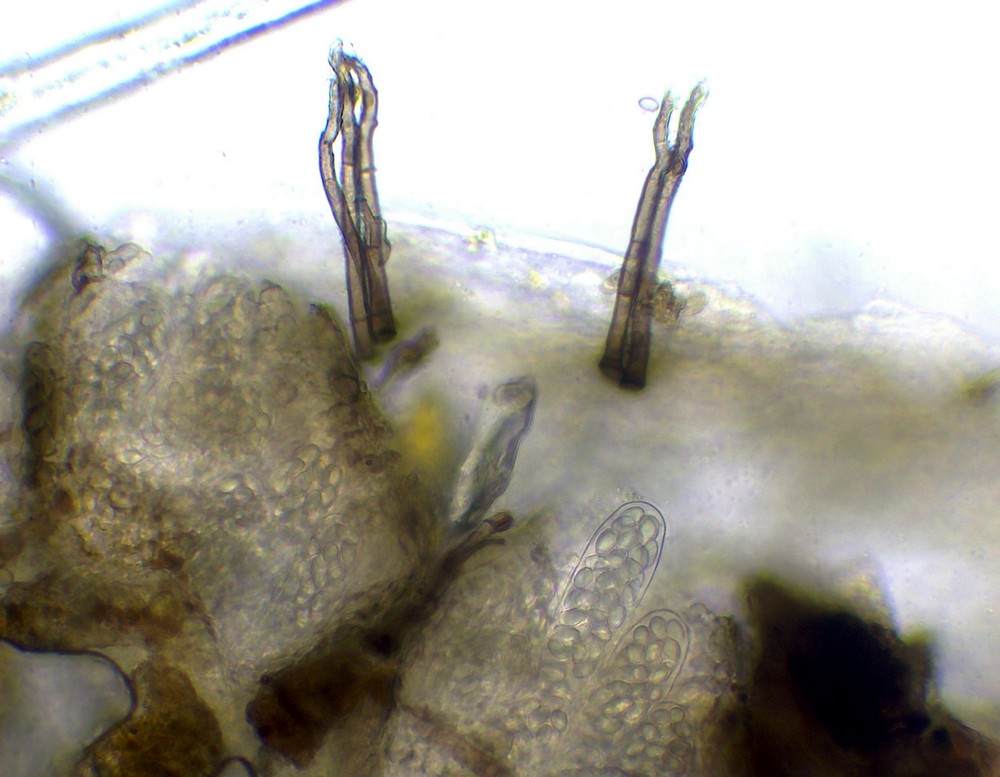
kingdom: Fungi
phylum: Ascomycota
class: Leotiomycetes
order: Thelebolales
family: Thelebolaceae
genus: Thelebolus
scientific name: Thelebolus stercoreus
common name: mangesporet småbæger
